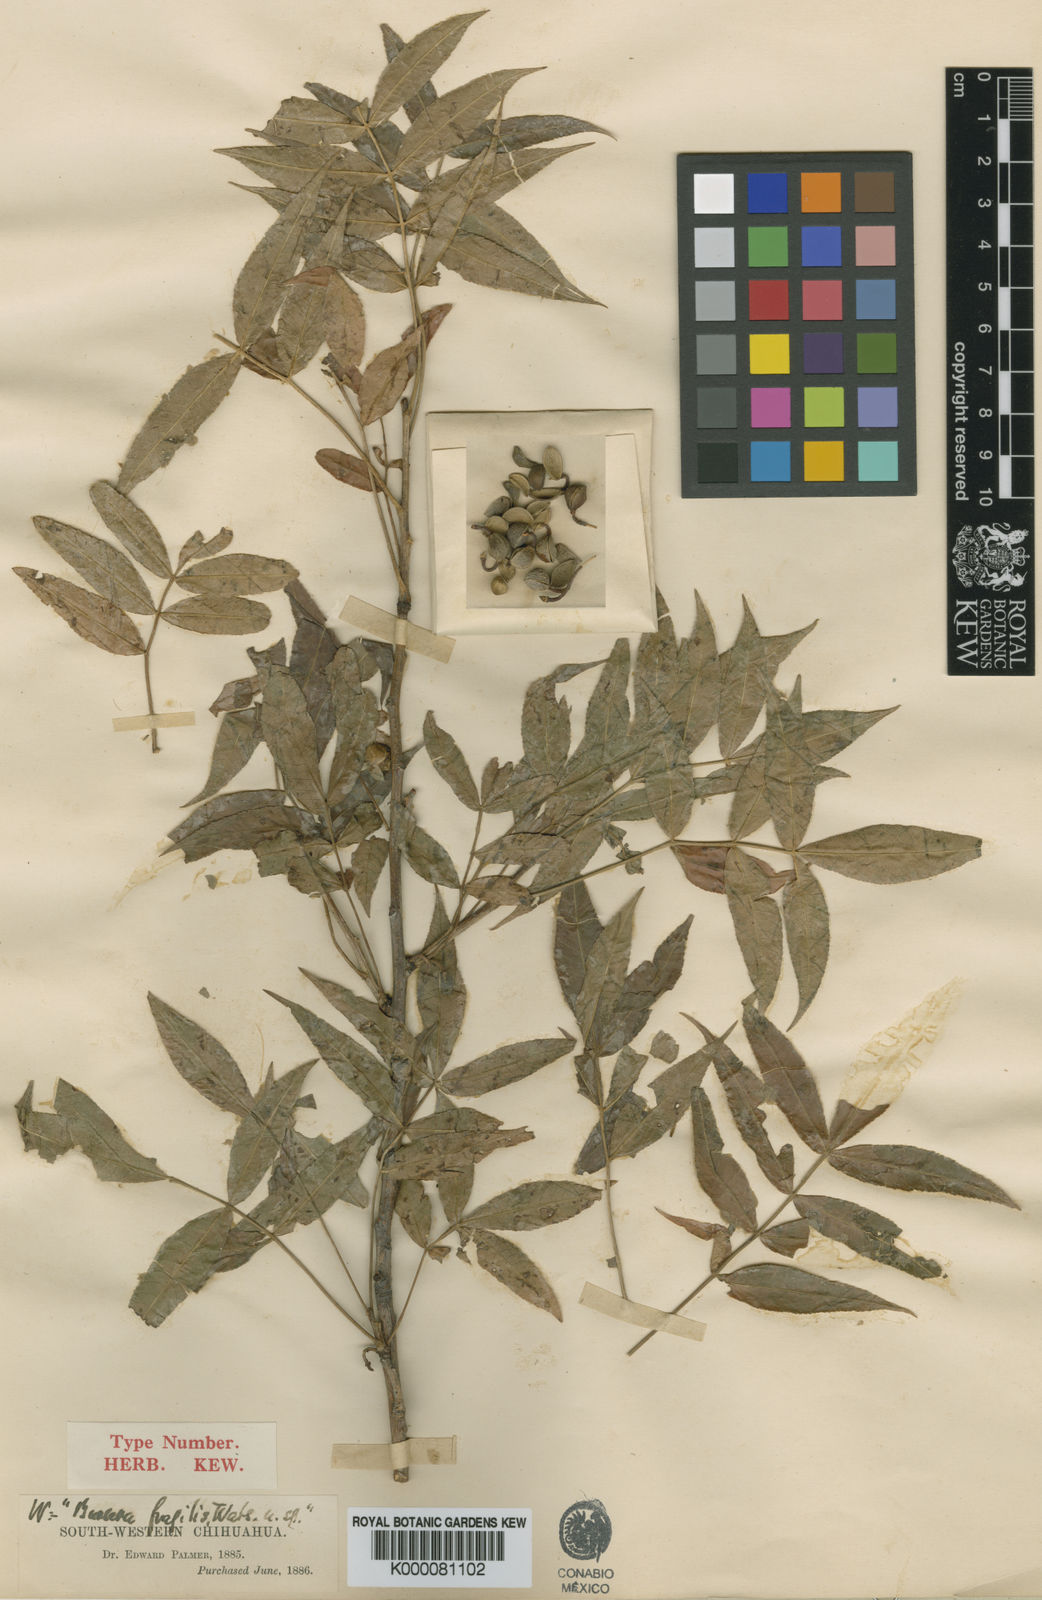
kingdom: Plantae
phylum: Tracheophyta
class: Magnoliopsida
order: Sapindales
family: Burseraceae
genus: Bursera
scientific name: Bursera fragilis
